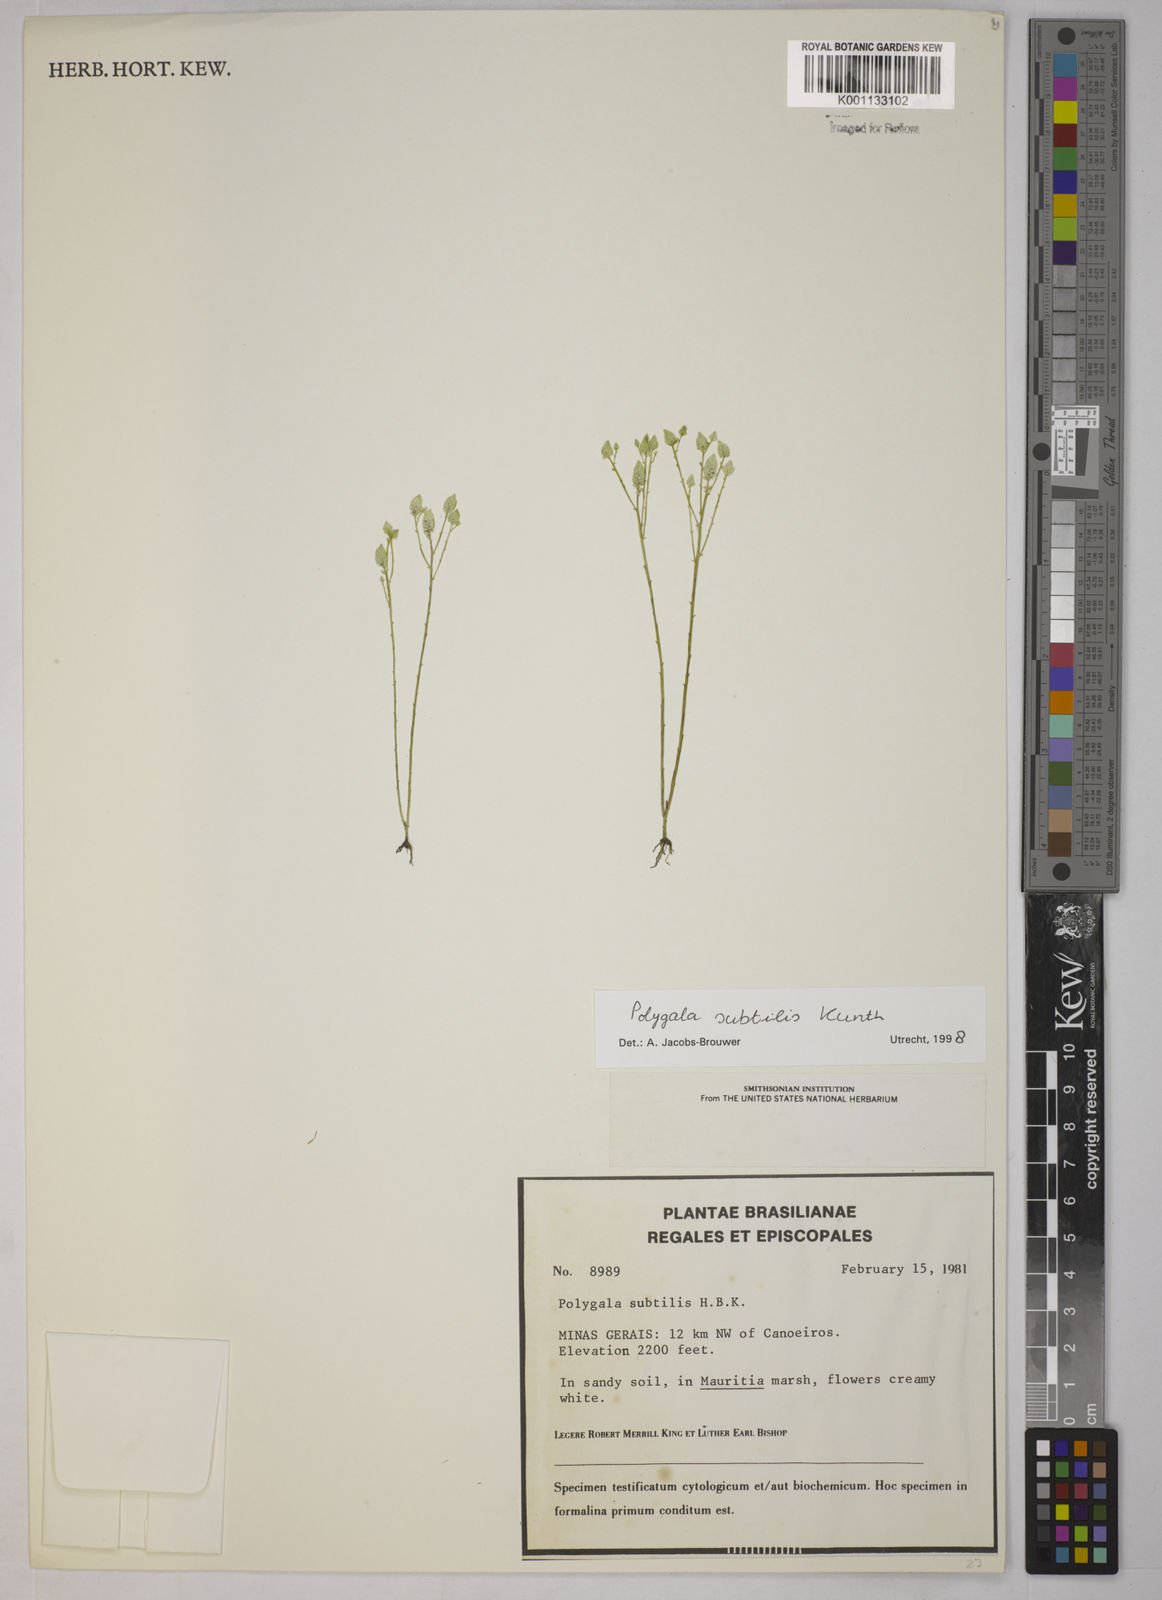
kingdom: Plantae
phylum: Tracheophyta
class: Magnoliopsida
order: Fabales
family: Polygalaceae
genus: Polygala
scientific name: Polygala subtilis
